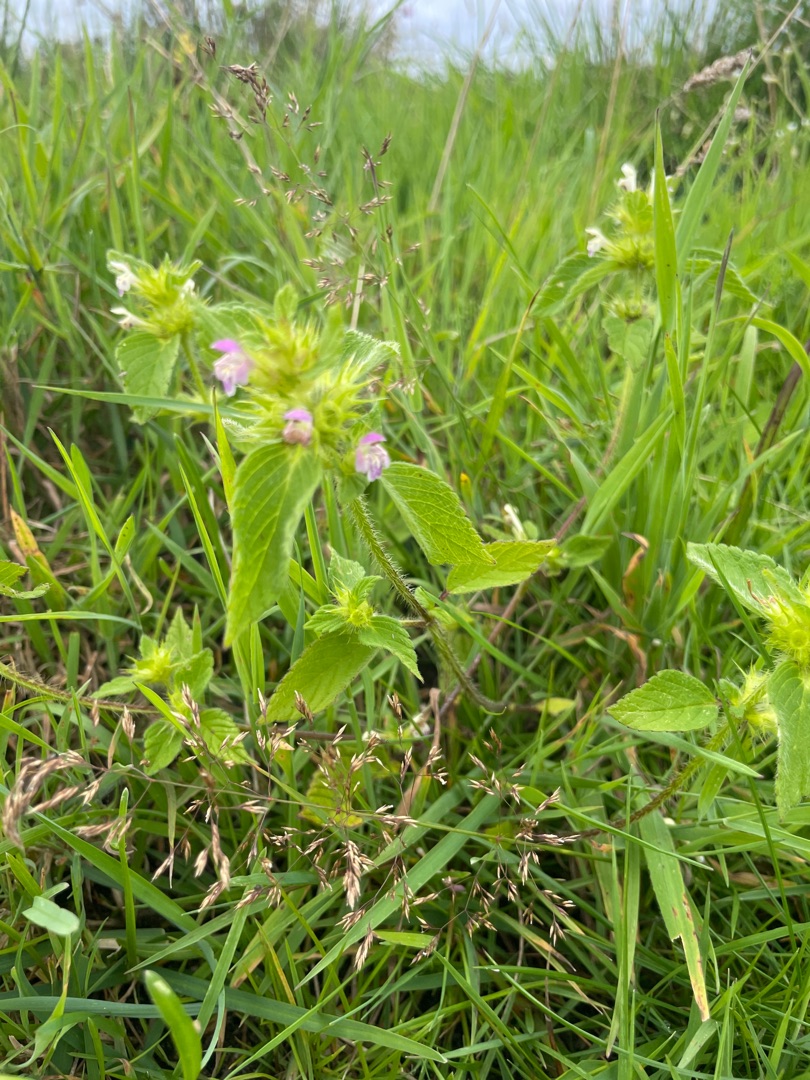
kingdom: Plantae
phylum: Tracheophyta
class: Magnoliopsida
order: Lamiales
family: Lamiaceae
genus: Galeopsis
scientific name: Galeopsis bifida
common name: Skov-hanekro
